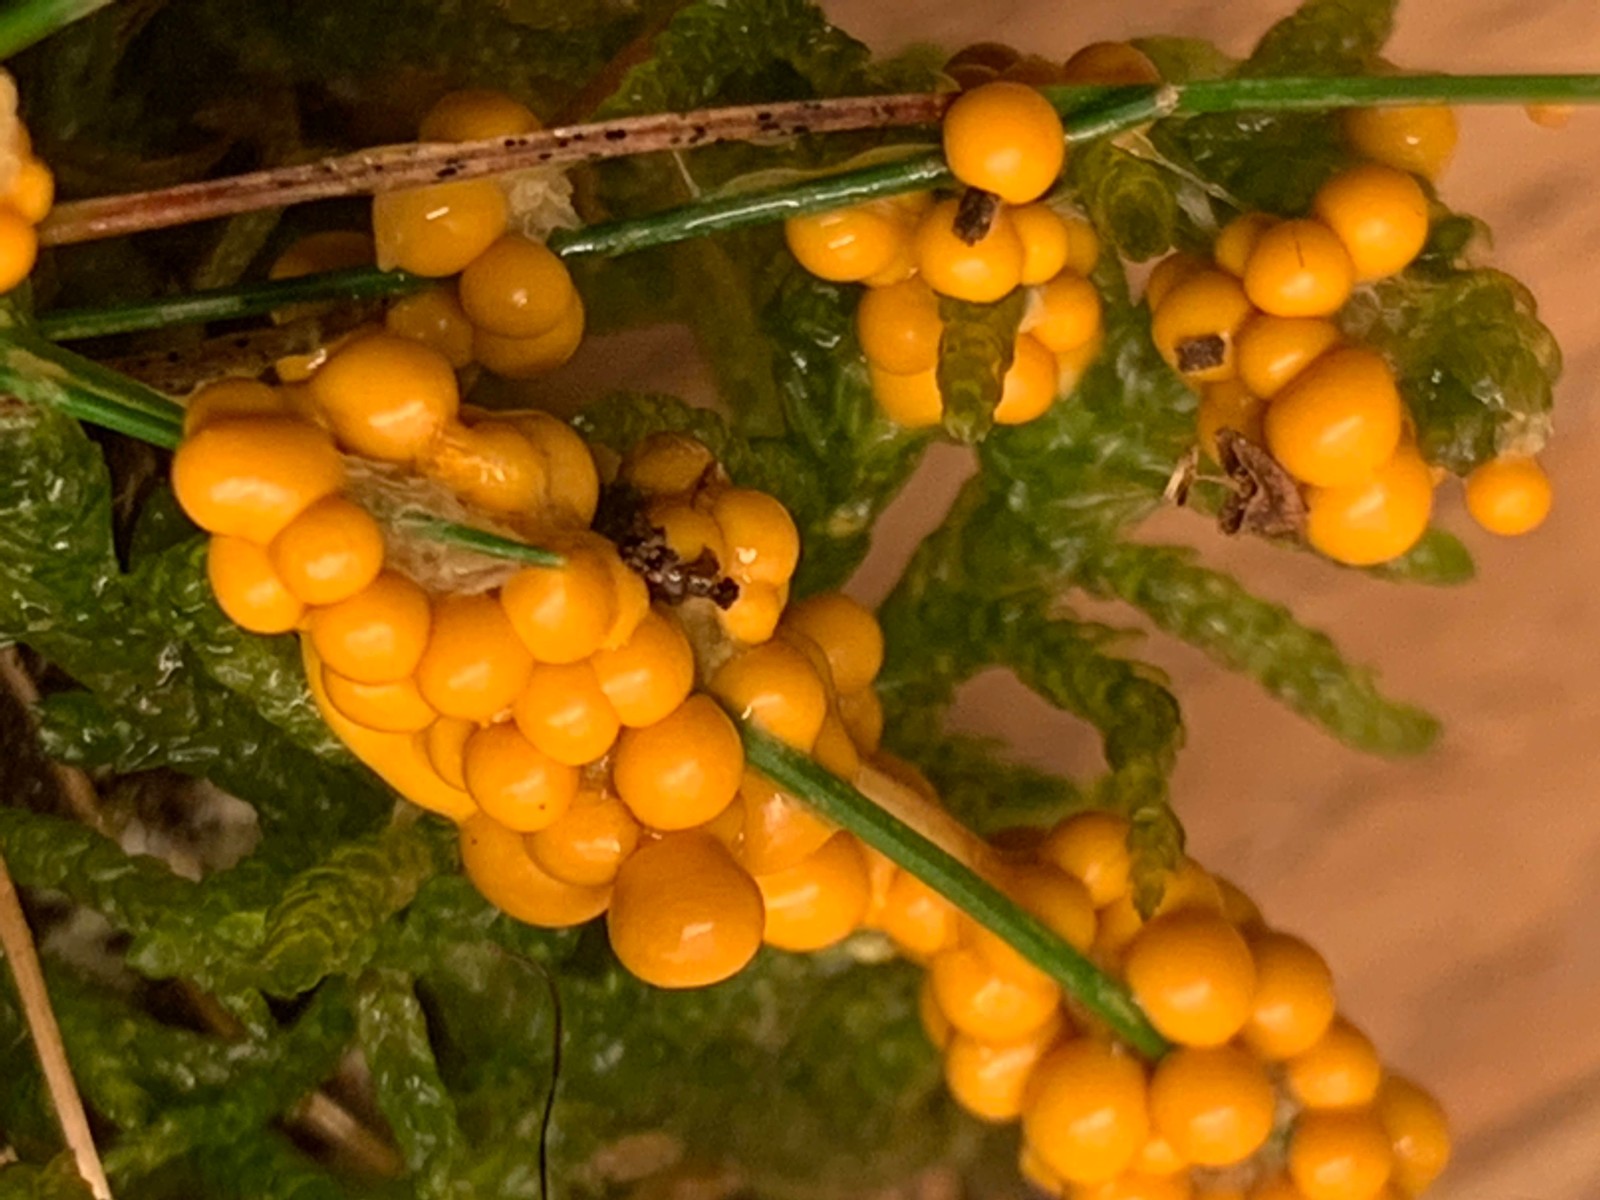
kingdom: Protozoa
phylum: Mycetozoa
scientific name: Mycetozoa
